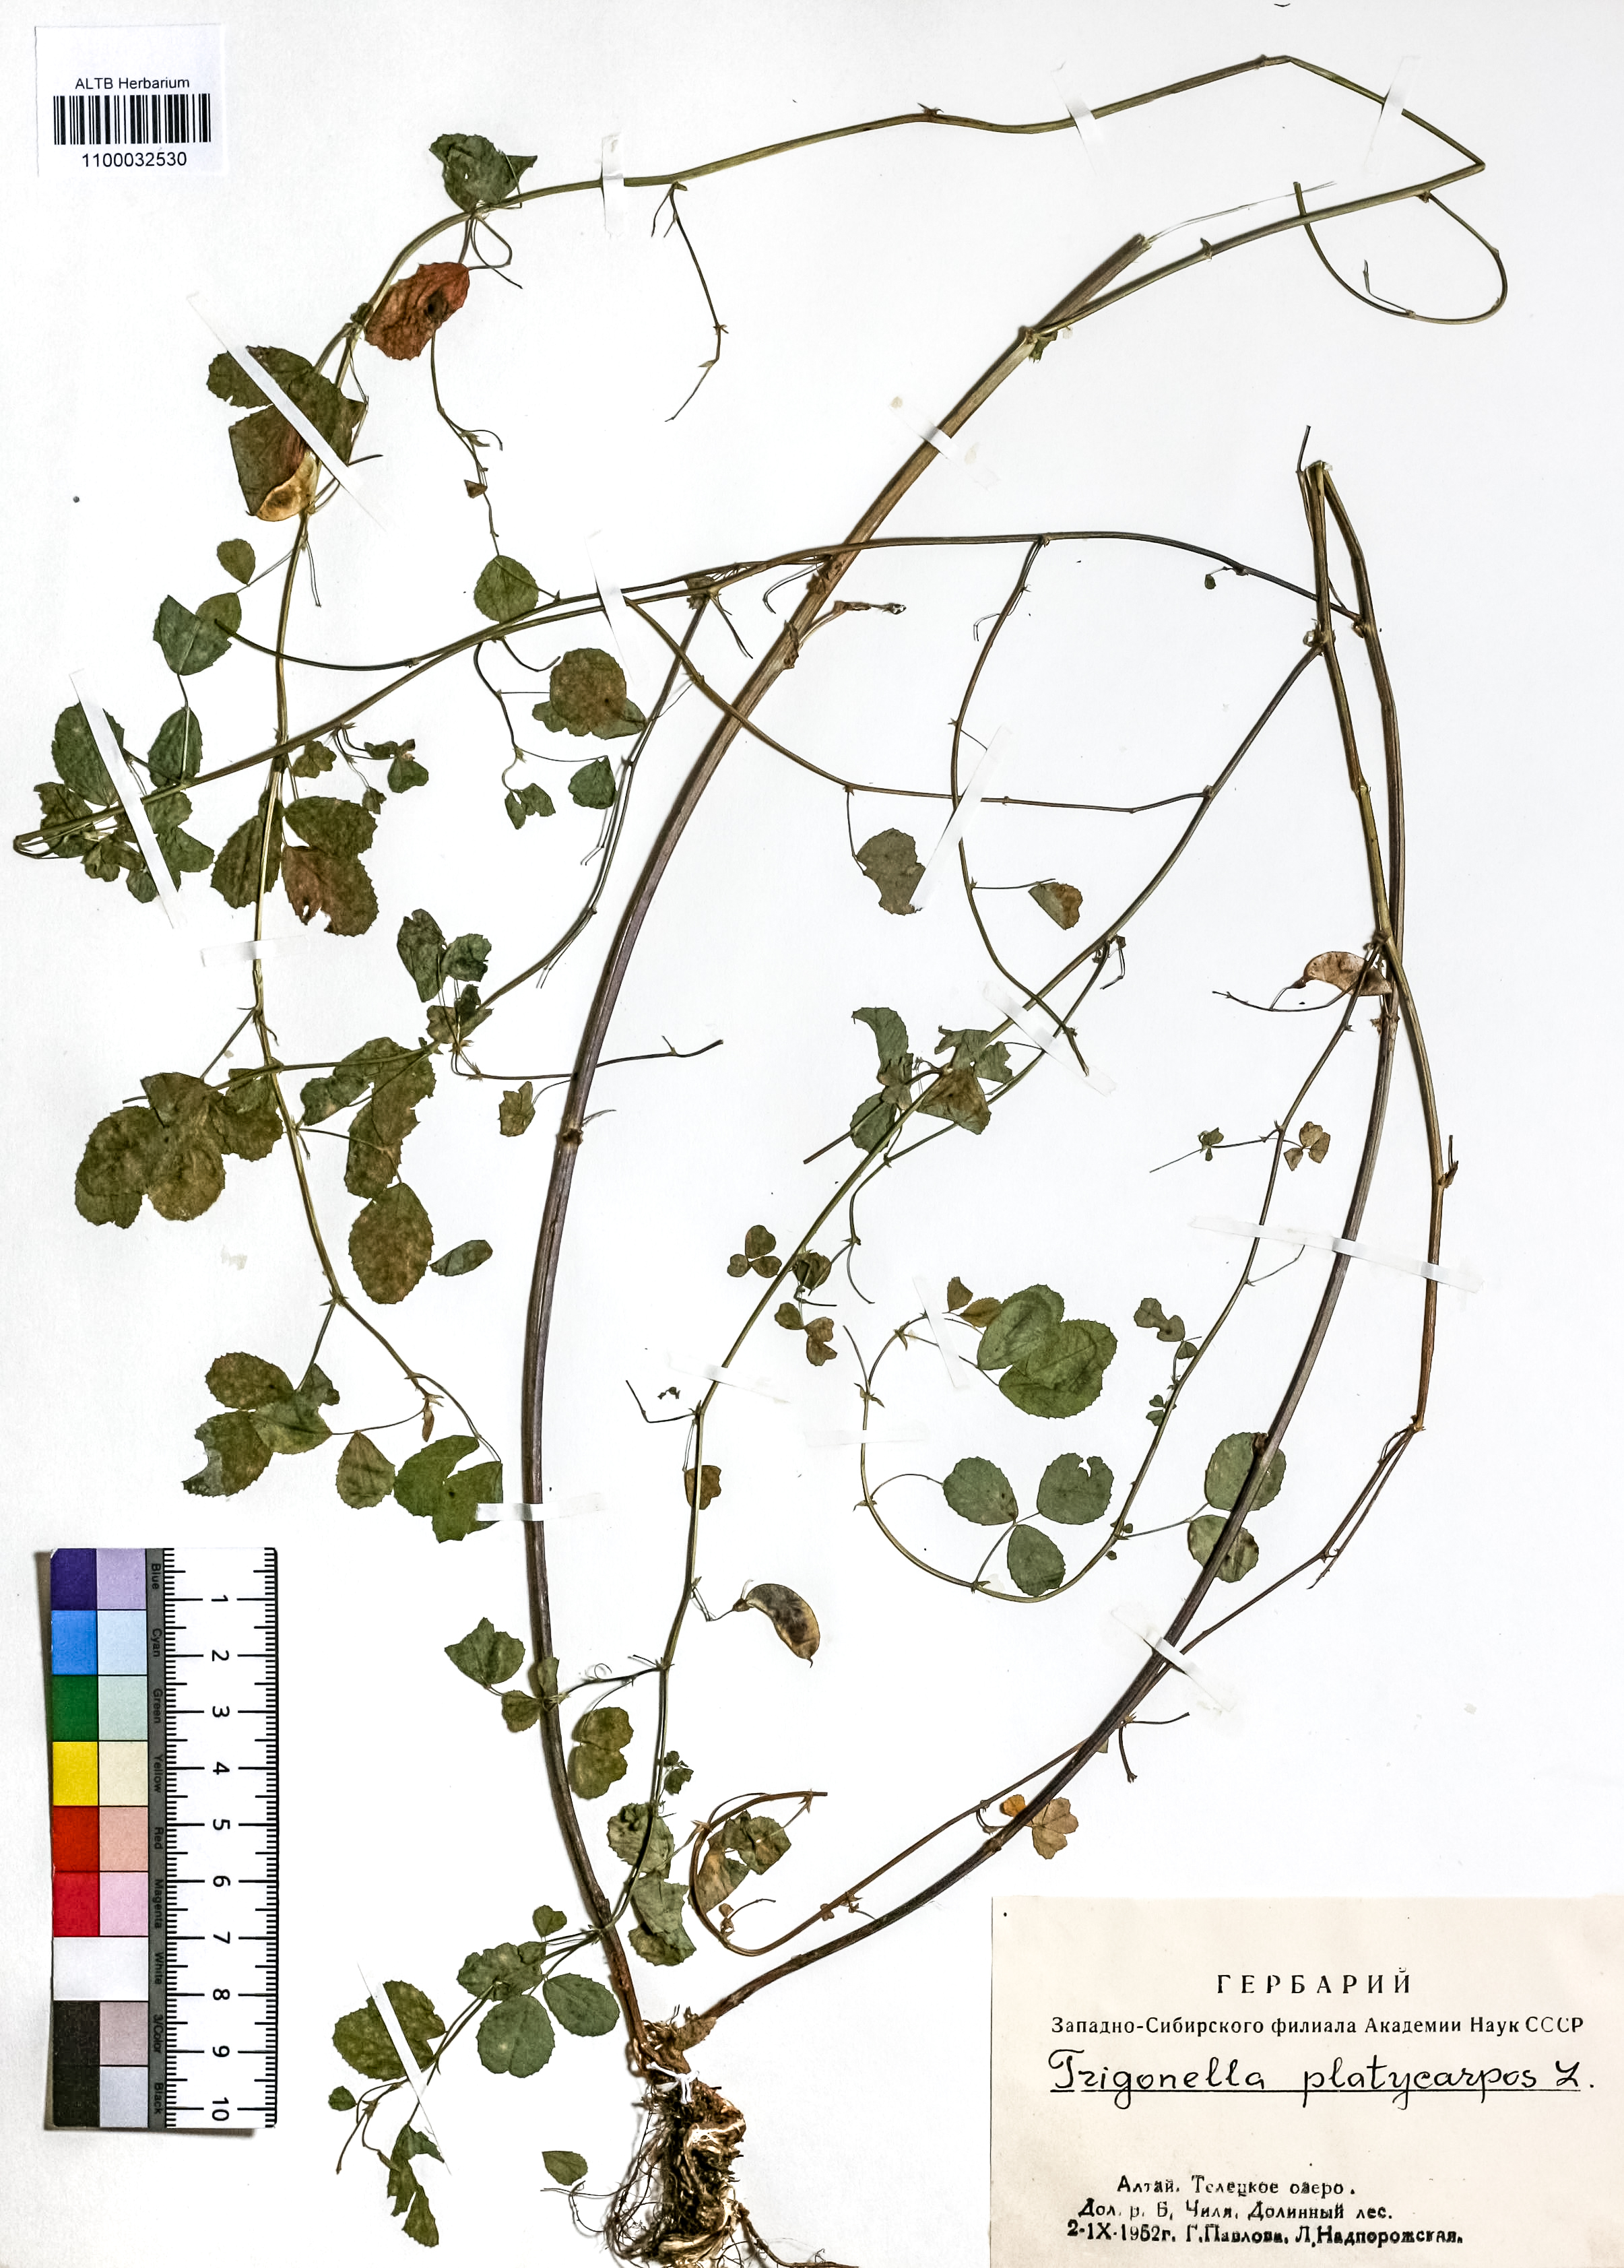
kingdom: Plantae
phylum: Tracheophyta
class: Magnoliopsida
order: Fabales
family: Fabaceae
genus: Medicago
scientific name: Medicago platycarpos
